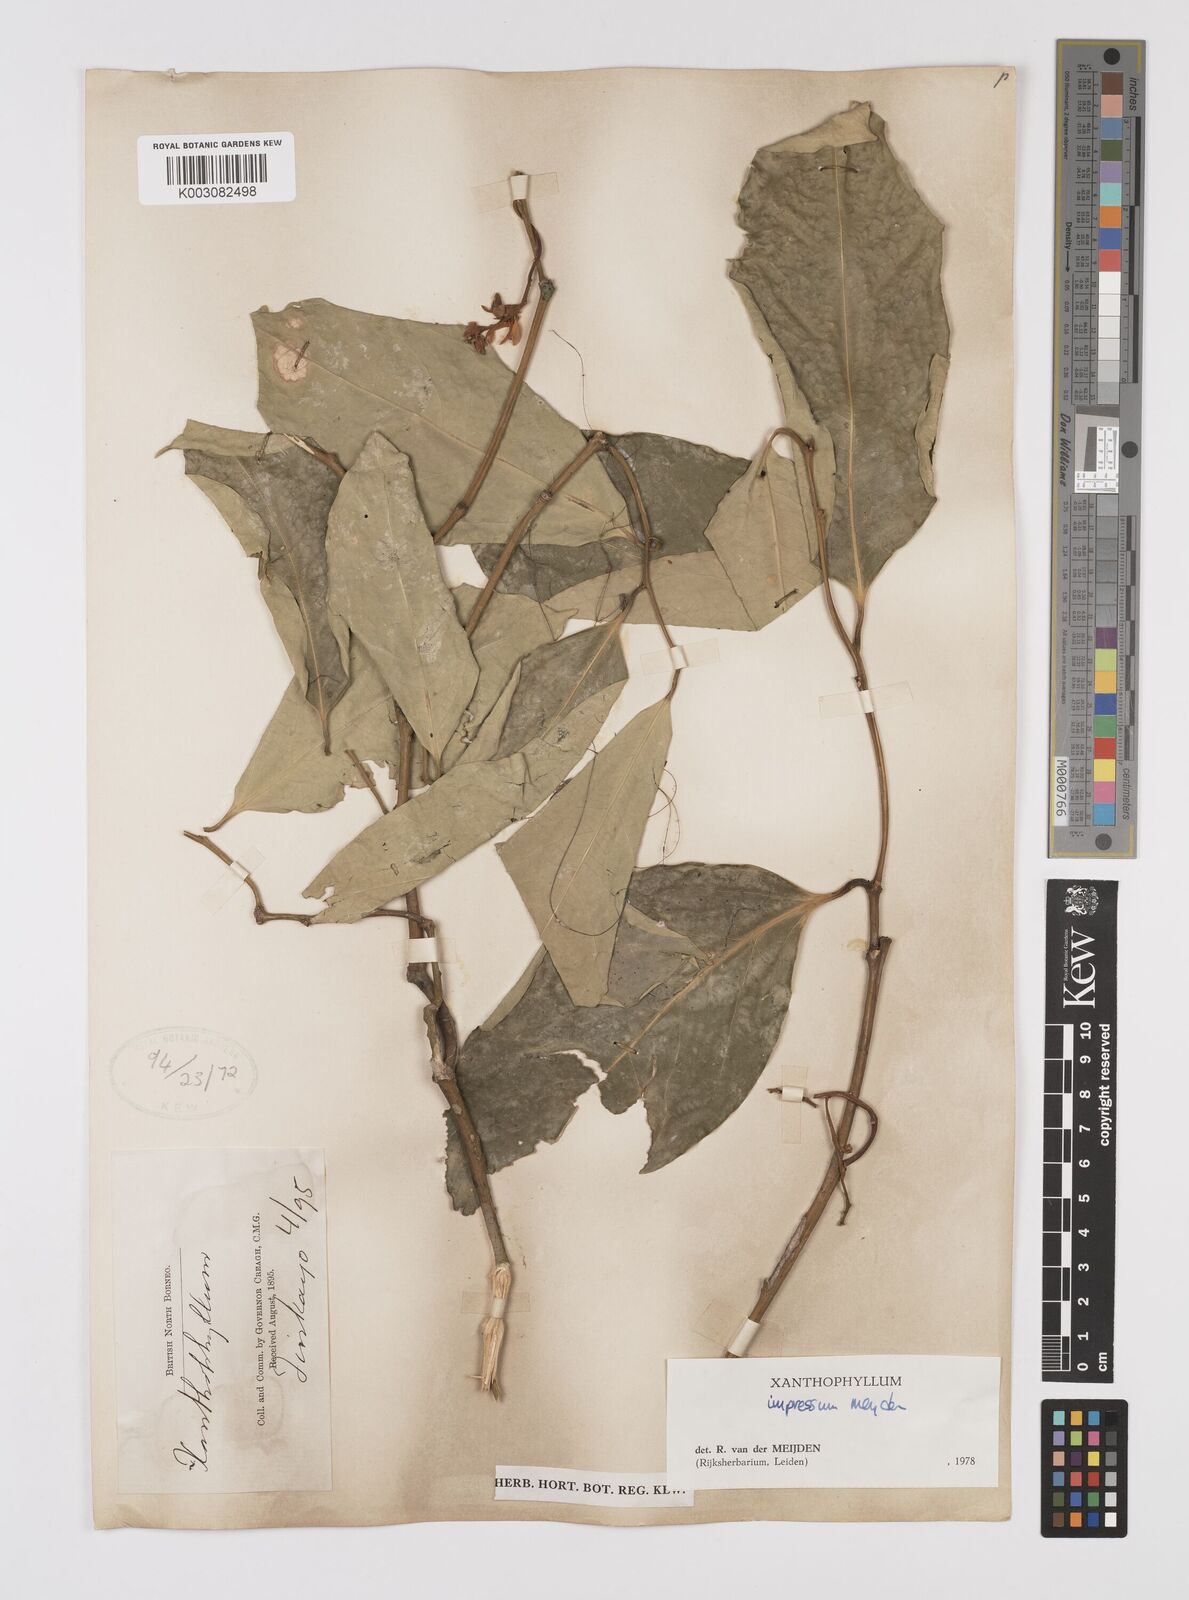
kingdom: Plantae
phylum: Tracheophyta
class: Magnoliopsida
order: Fabales
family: Polygalaceae
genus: Xanthophyllum
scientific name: Xanthophyllum impressum
